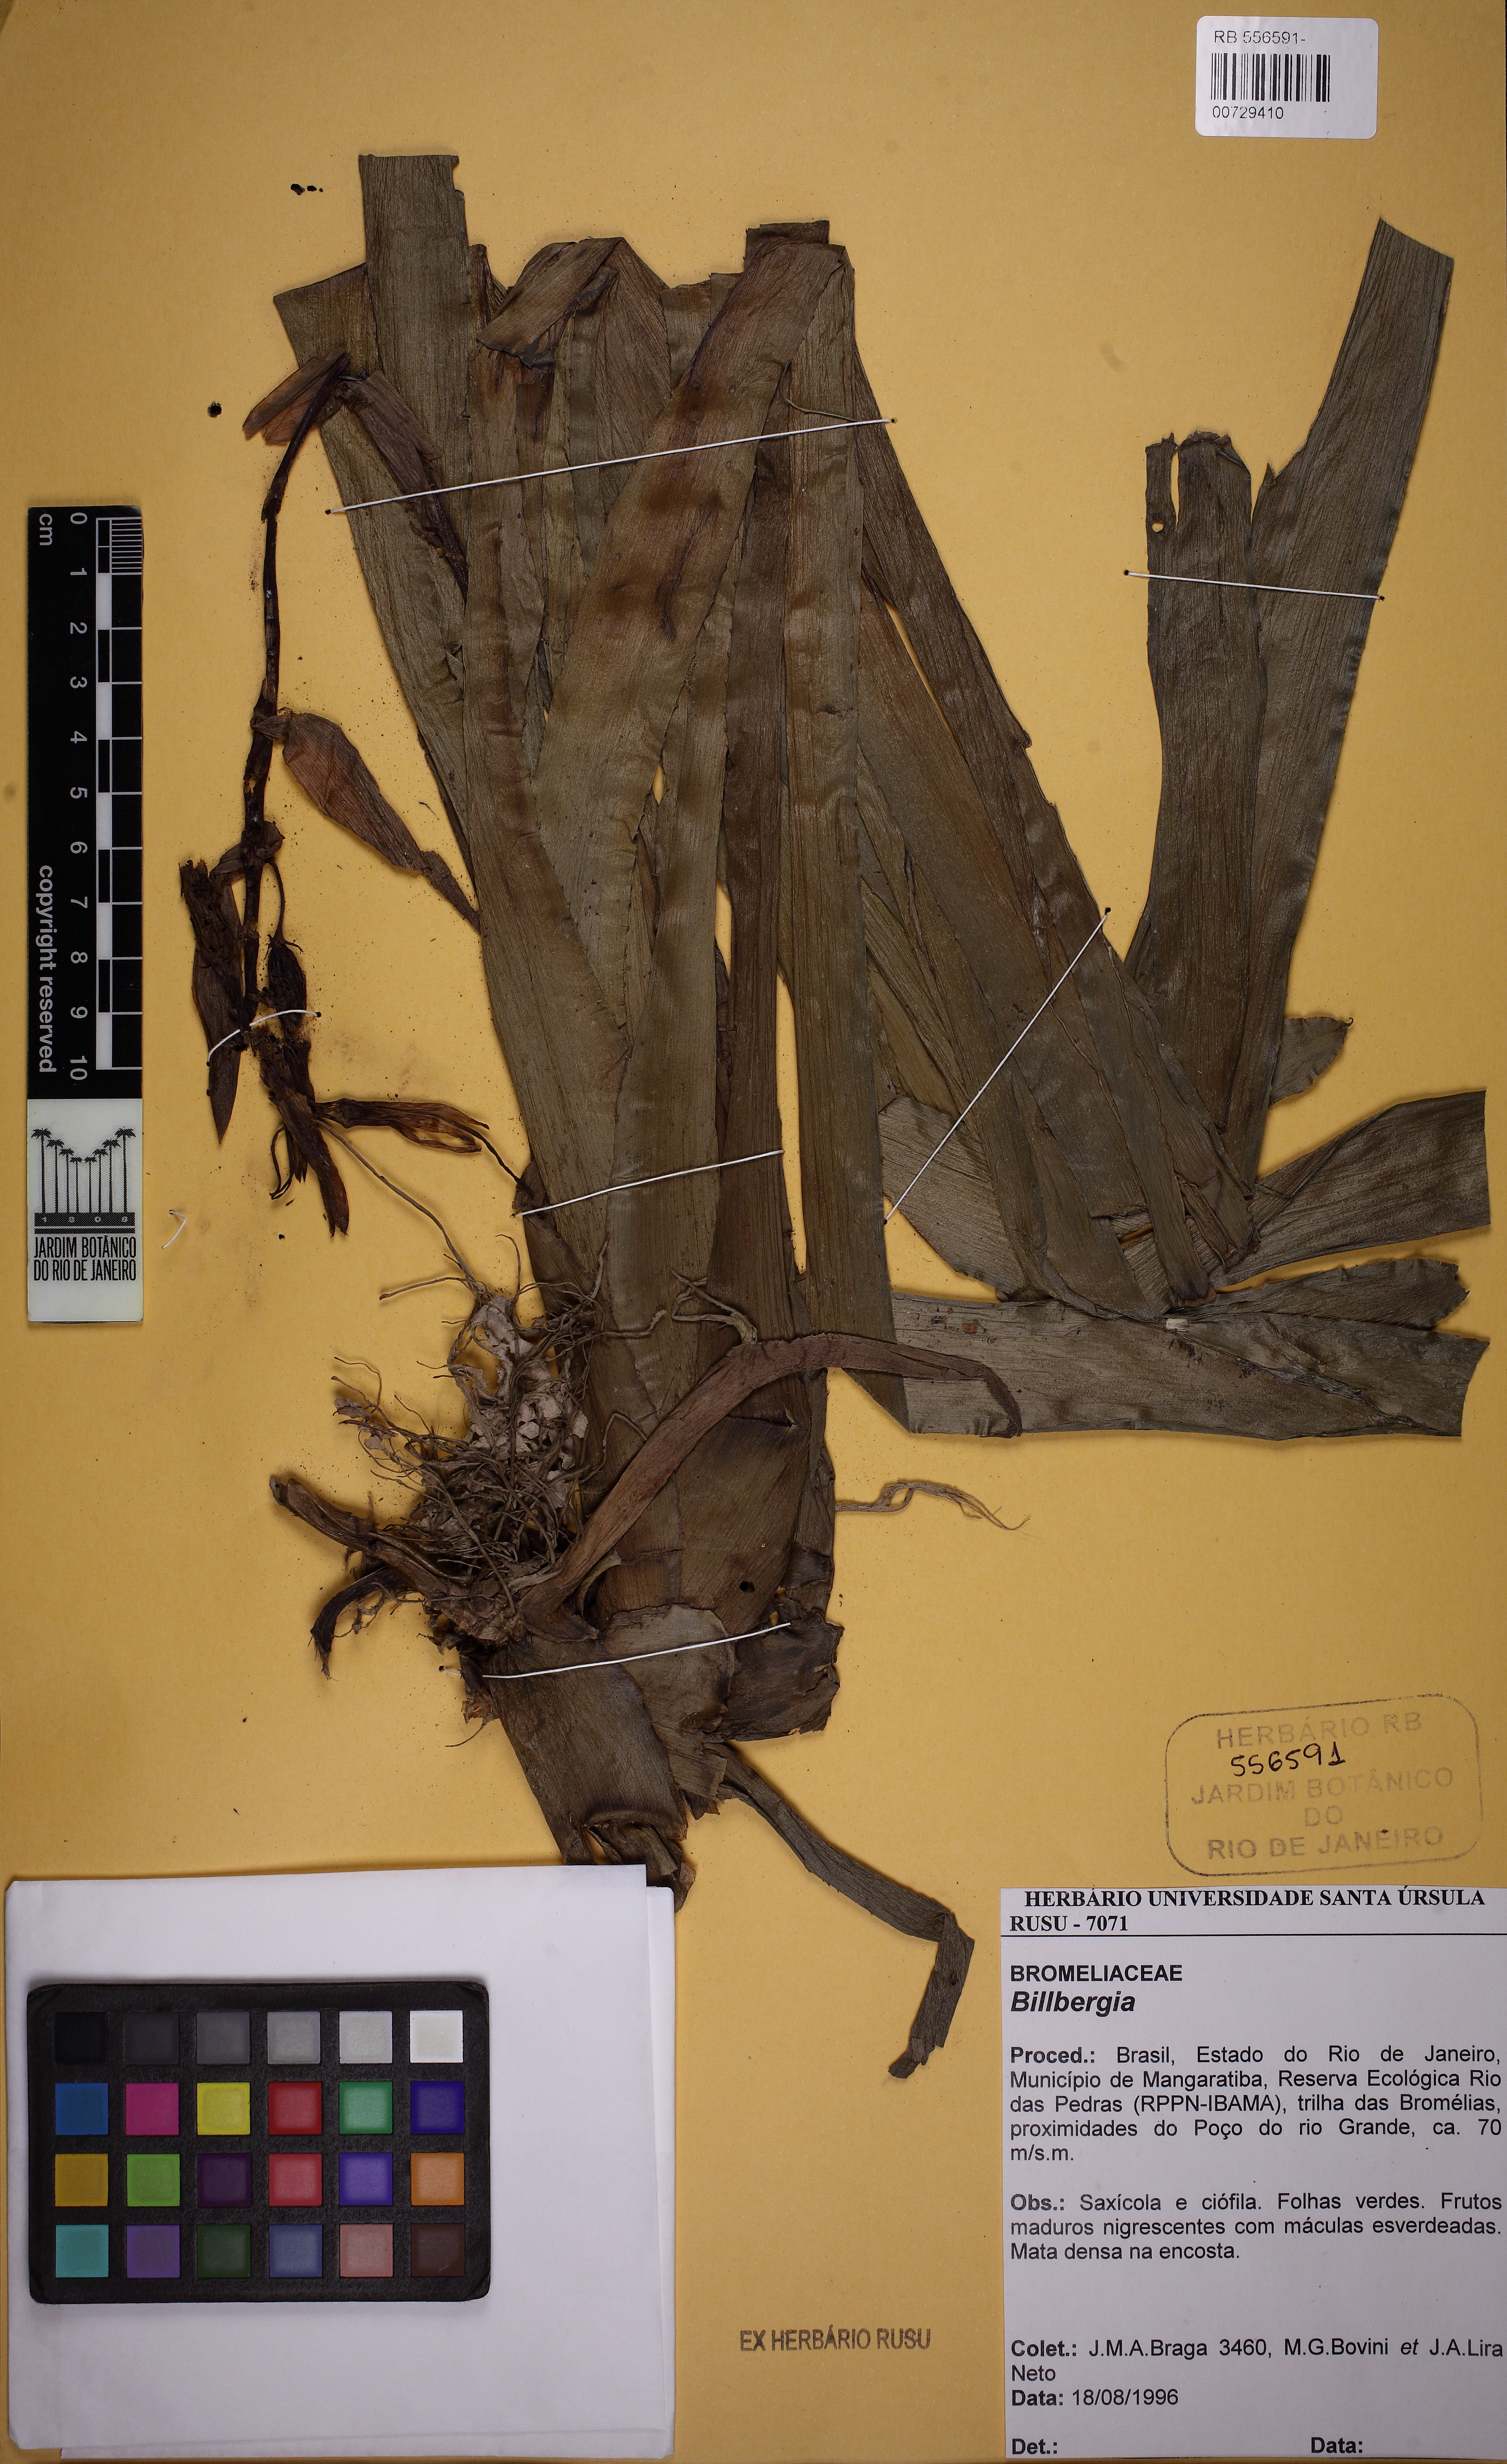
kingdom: Plantae
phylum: Tracheophyta
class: Liliopsida
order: Poales
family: Bromeliaceae
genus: Billbergia
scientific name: Billbergia
